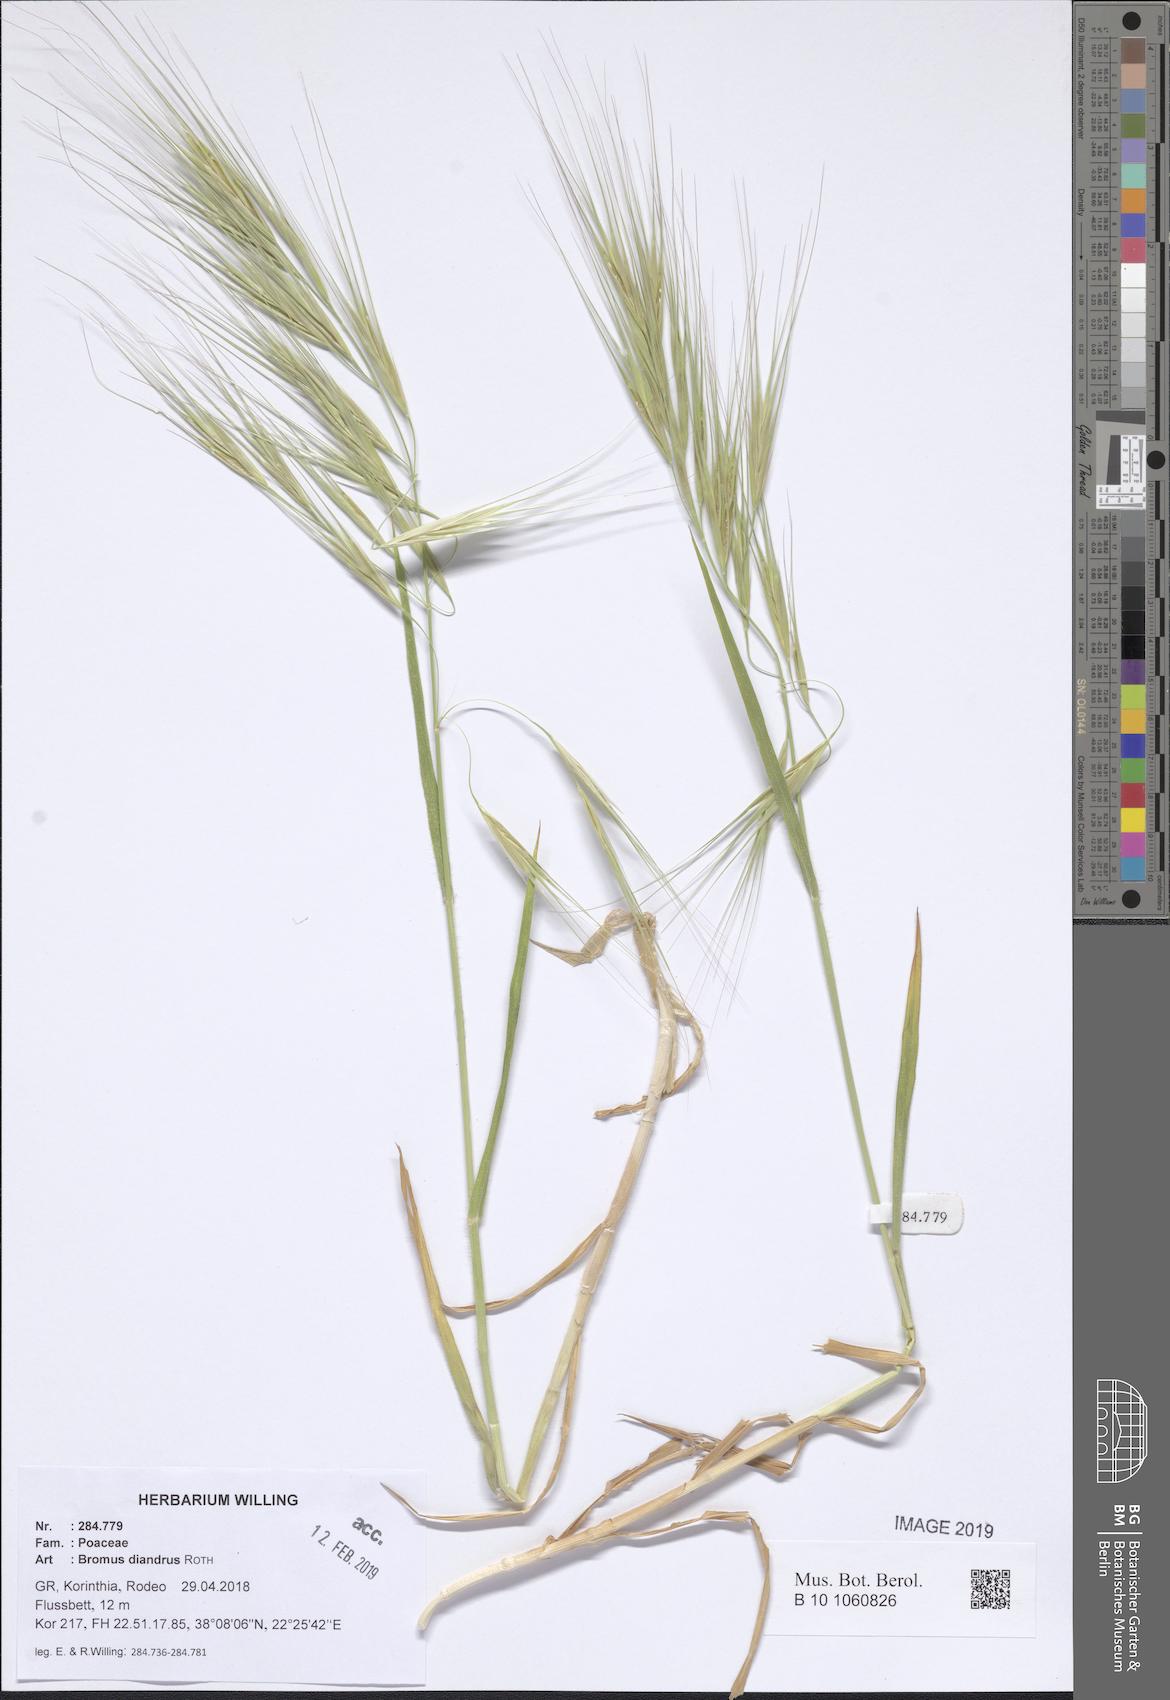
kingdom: Plantae
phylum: Tracheophyta
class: Liliopsida
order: Poales
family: Poaceae
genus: Bromus
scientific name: Bromus diandrus
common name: Ripgut brome
